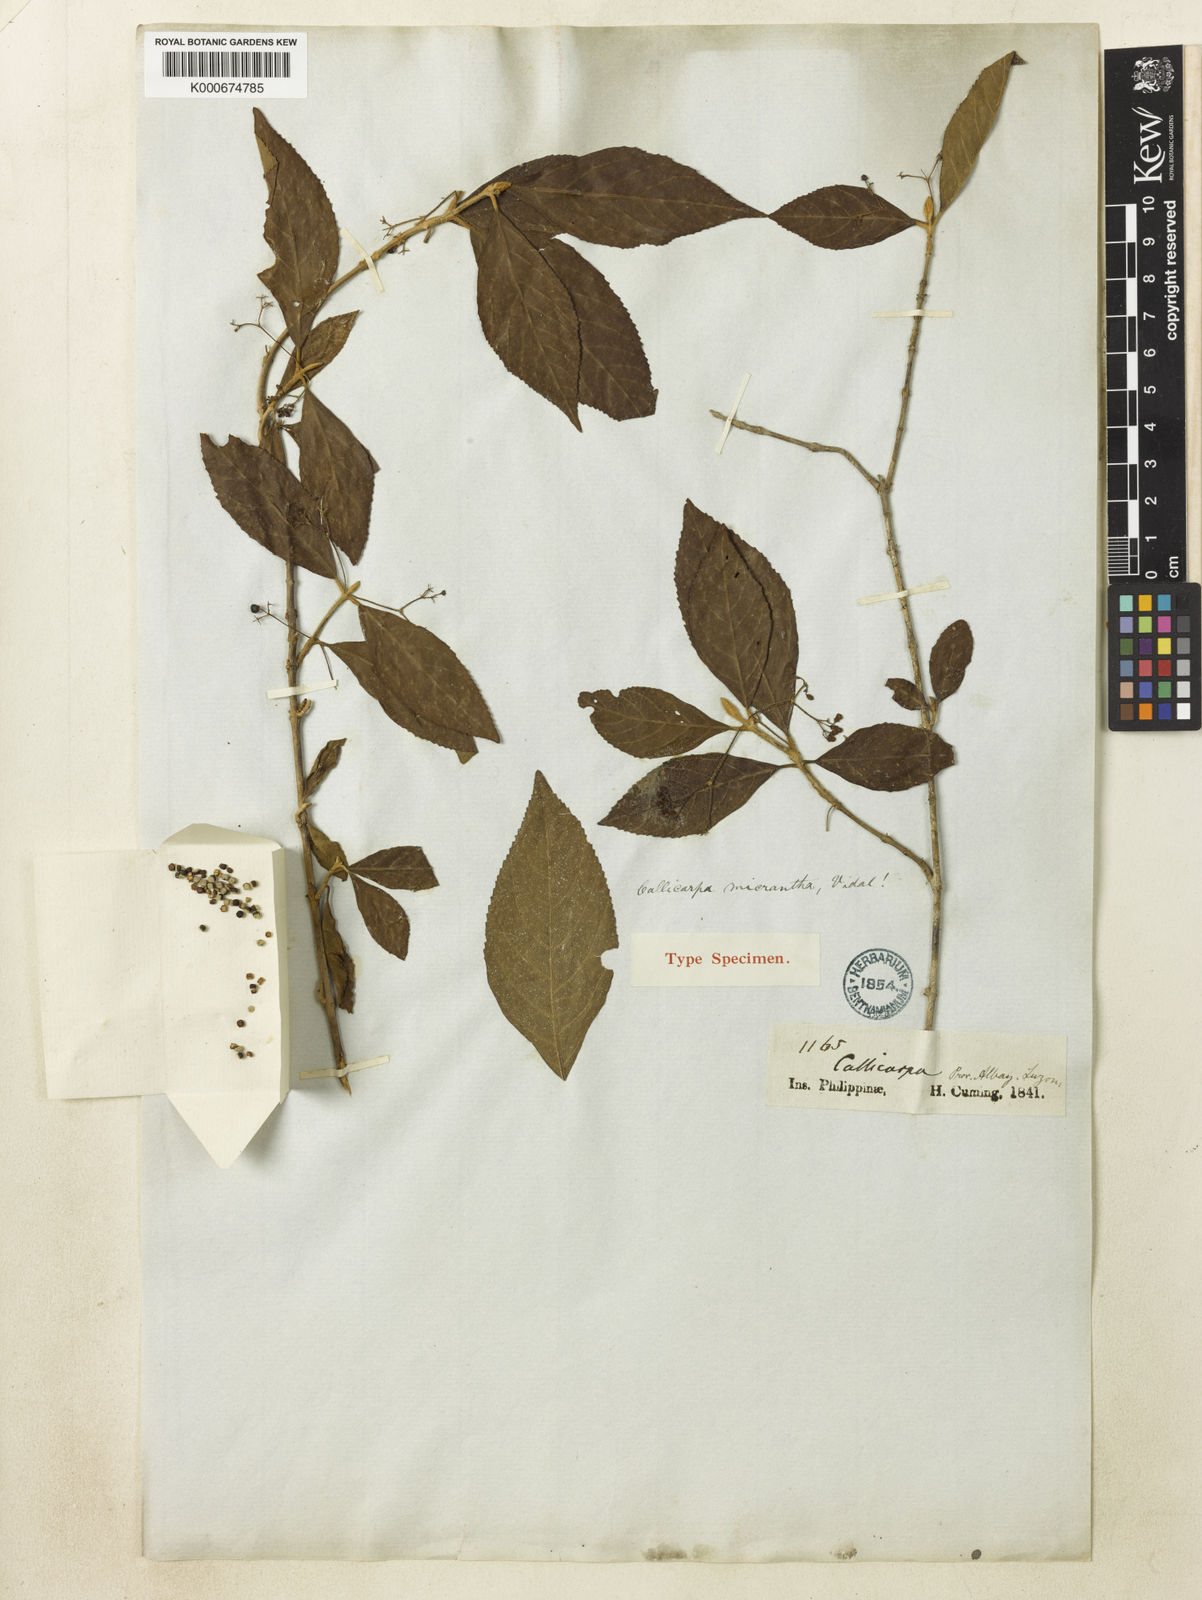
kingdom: Plantae
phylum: Tracheophyta
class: Magnoliopsida
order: Lamiales
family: Lamiaceae
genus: Callicarpa
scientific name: Callicarpa micrantha
